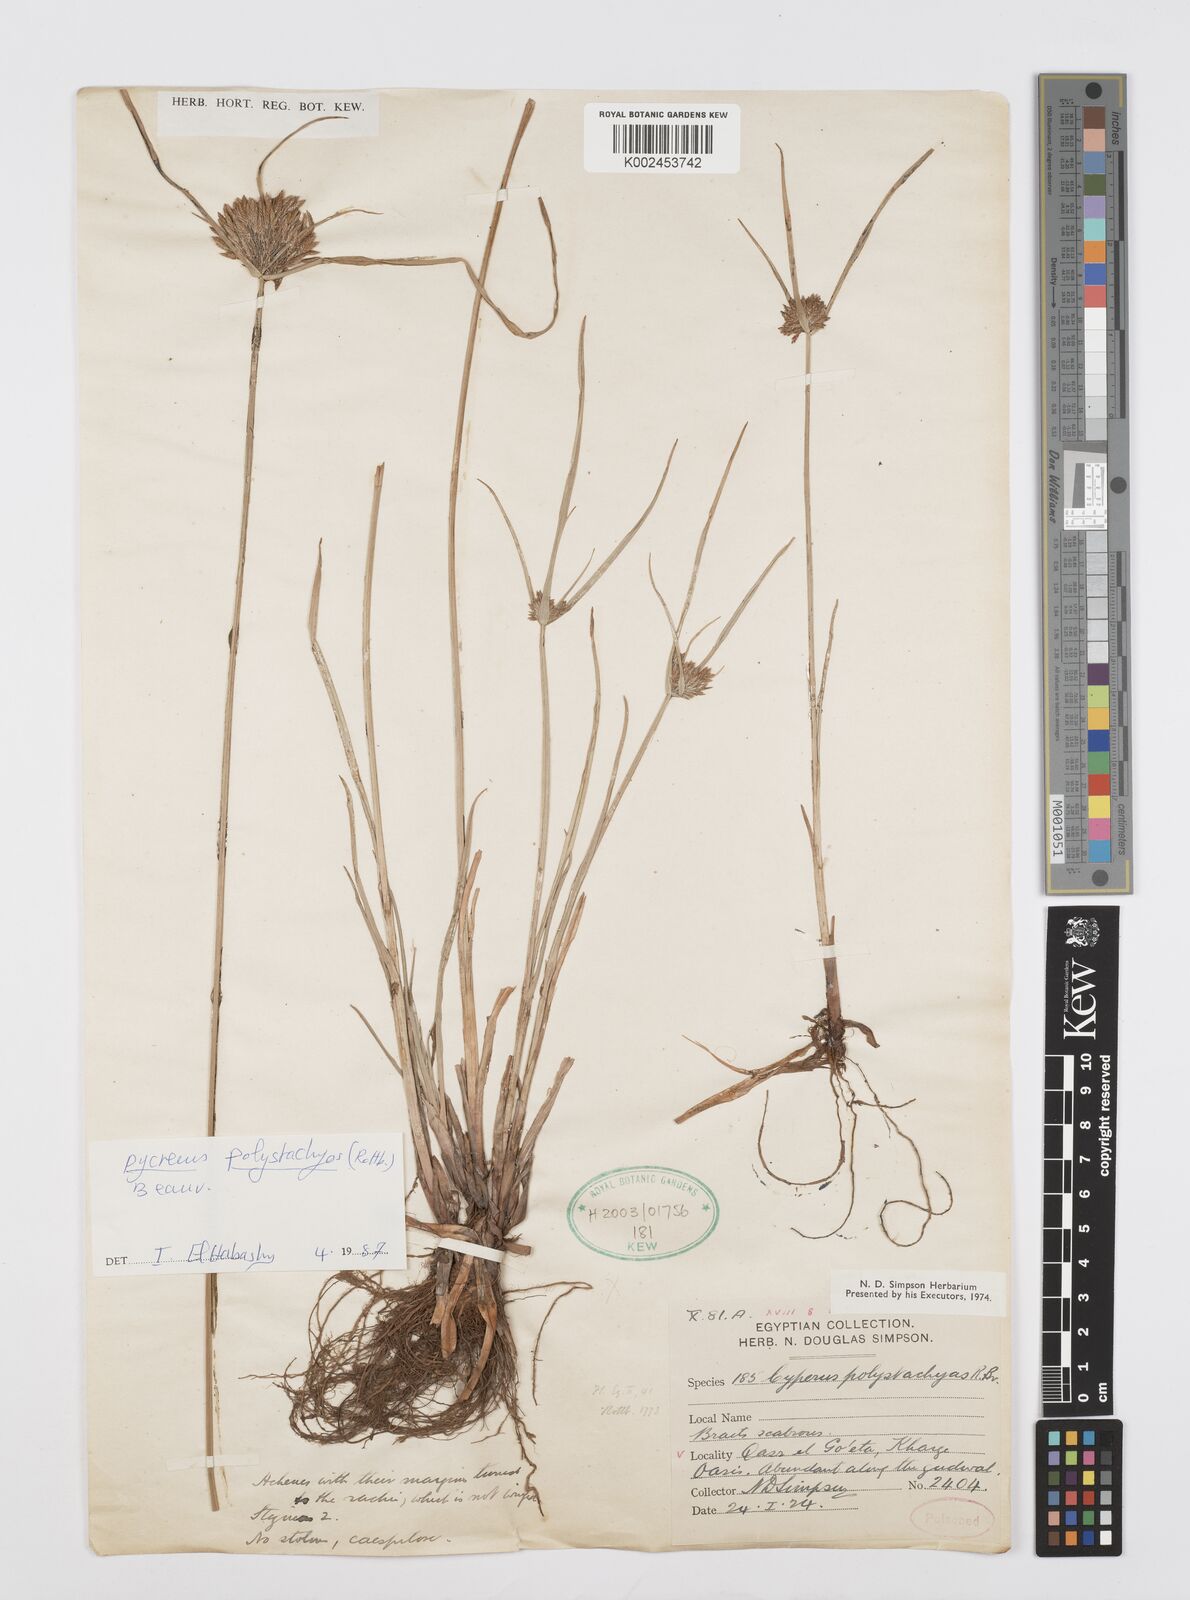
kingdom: Plantae
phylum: Tracheophyta
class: Liliopsida
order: Poales
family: Cyperaceae
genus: Cyperus
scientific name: Cyperus polystachyos
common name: Bunchy flat sedge
